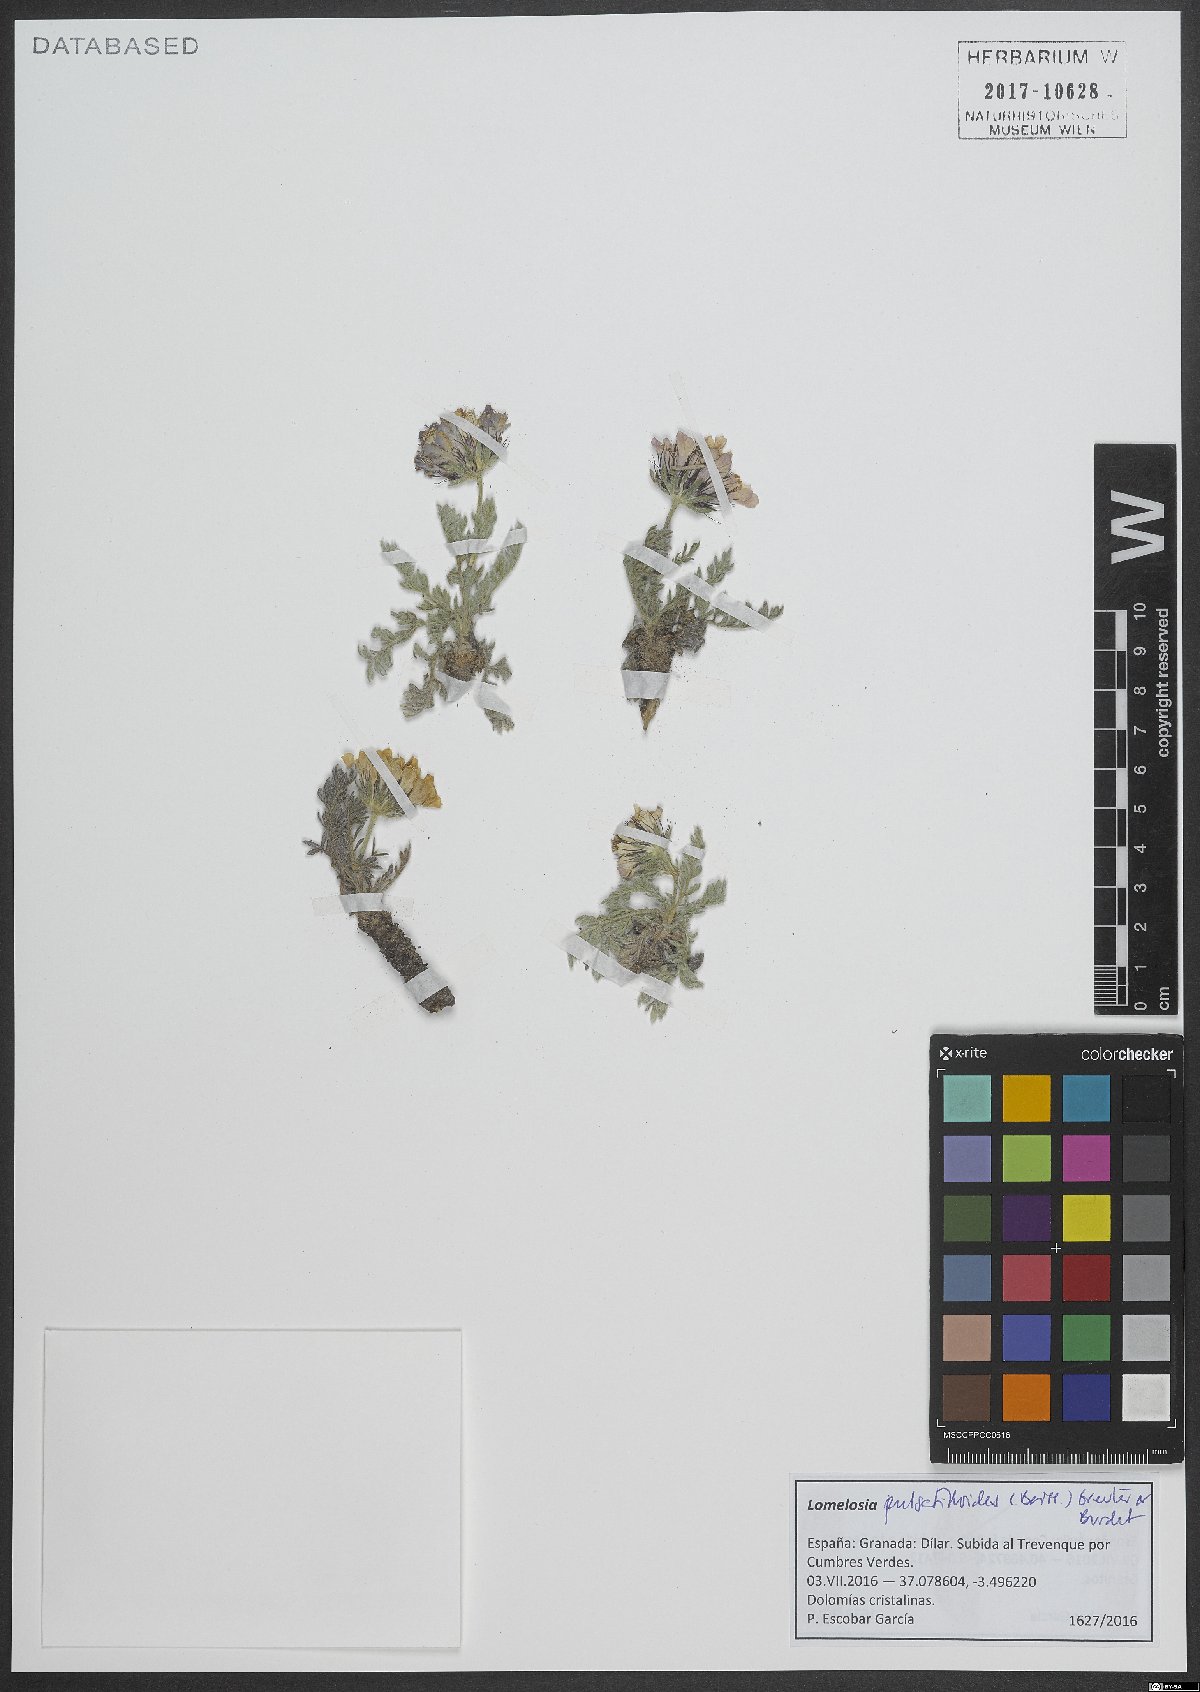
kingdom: Plantae
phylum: Tracheophyta
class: Magnoliopsida
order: Dipsacales
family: Caprifoliaceae
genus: Lomelosia
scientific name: Lomelosia pulsatilloides
